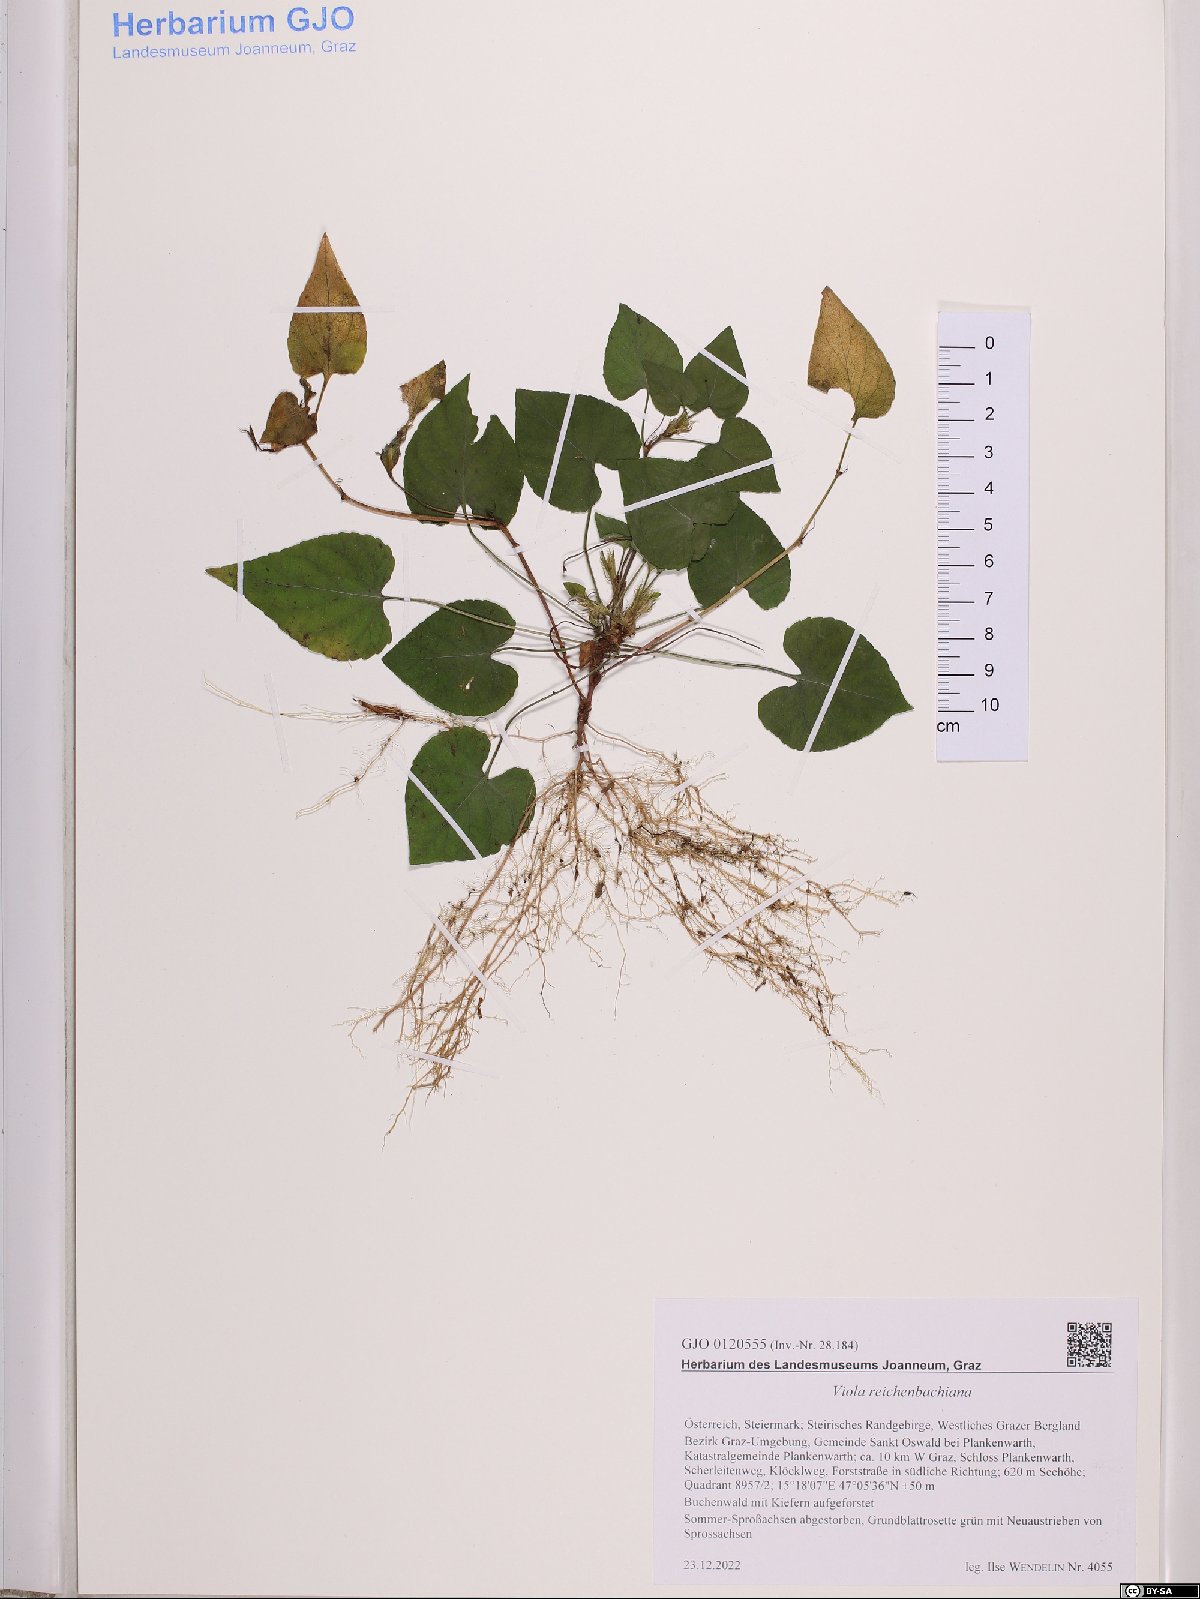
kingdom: Plantae
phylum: Tracheophyta
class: Magnoliopsida
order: Malpighiales
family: Violaceae
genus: Viola
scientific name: Viola reichenbachiana
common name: Early dog-violet
